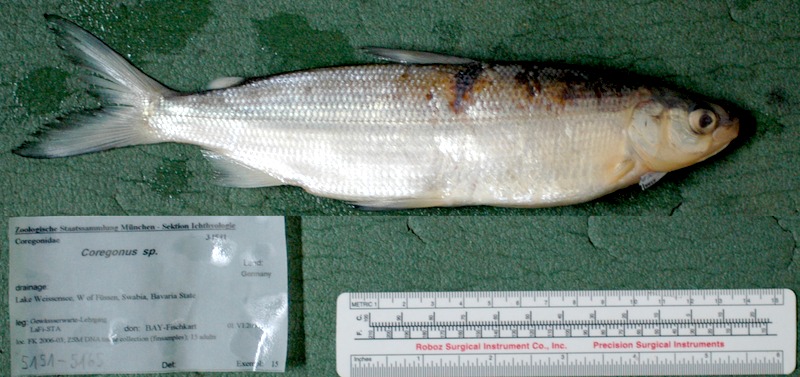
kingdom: Animalia
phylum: Chordata
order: Gasterosteiformes
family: Gasterosteidae
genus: Gasterosteus
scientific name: Gasterosteus aculeatus
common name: Three-spined stickleback
